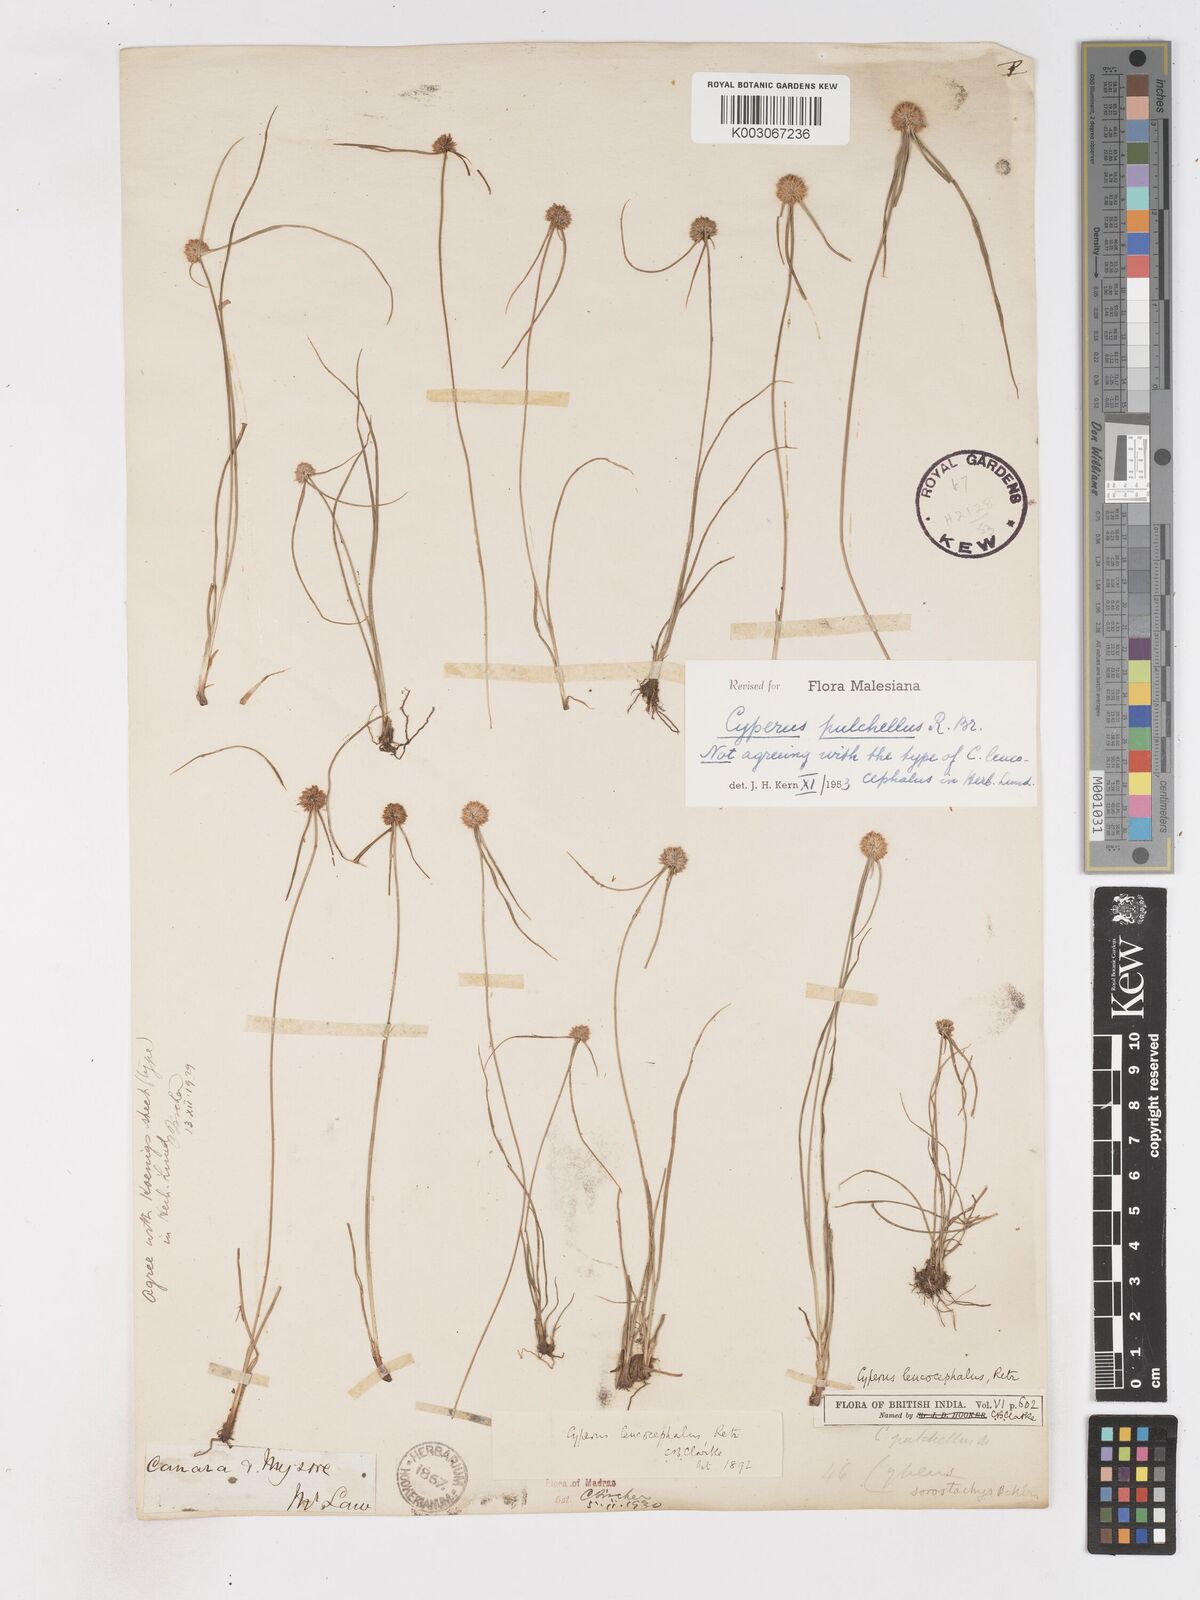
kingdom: Plantae
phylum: Tracheophyta
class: Liliopsida
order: Poales
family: Cyperaceae
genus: Cyperus
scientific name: Cyperus pulchellus
